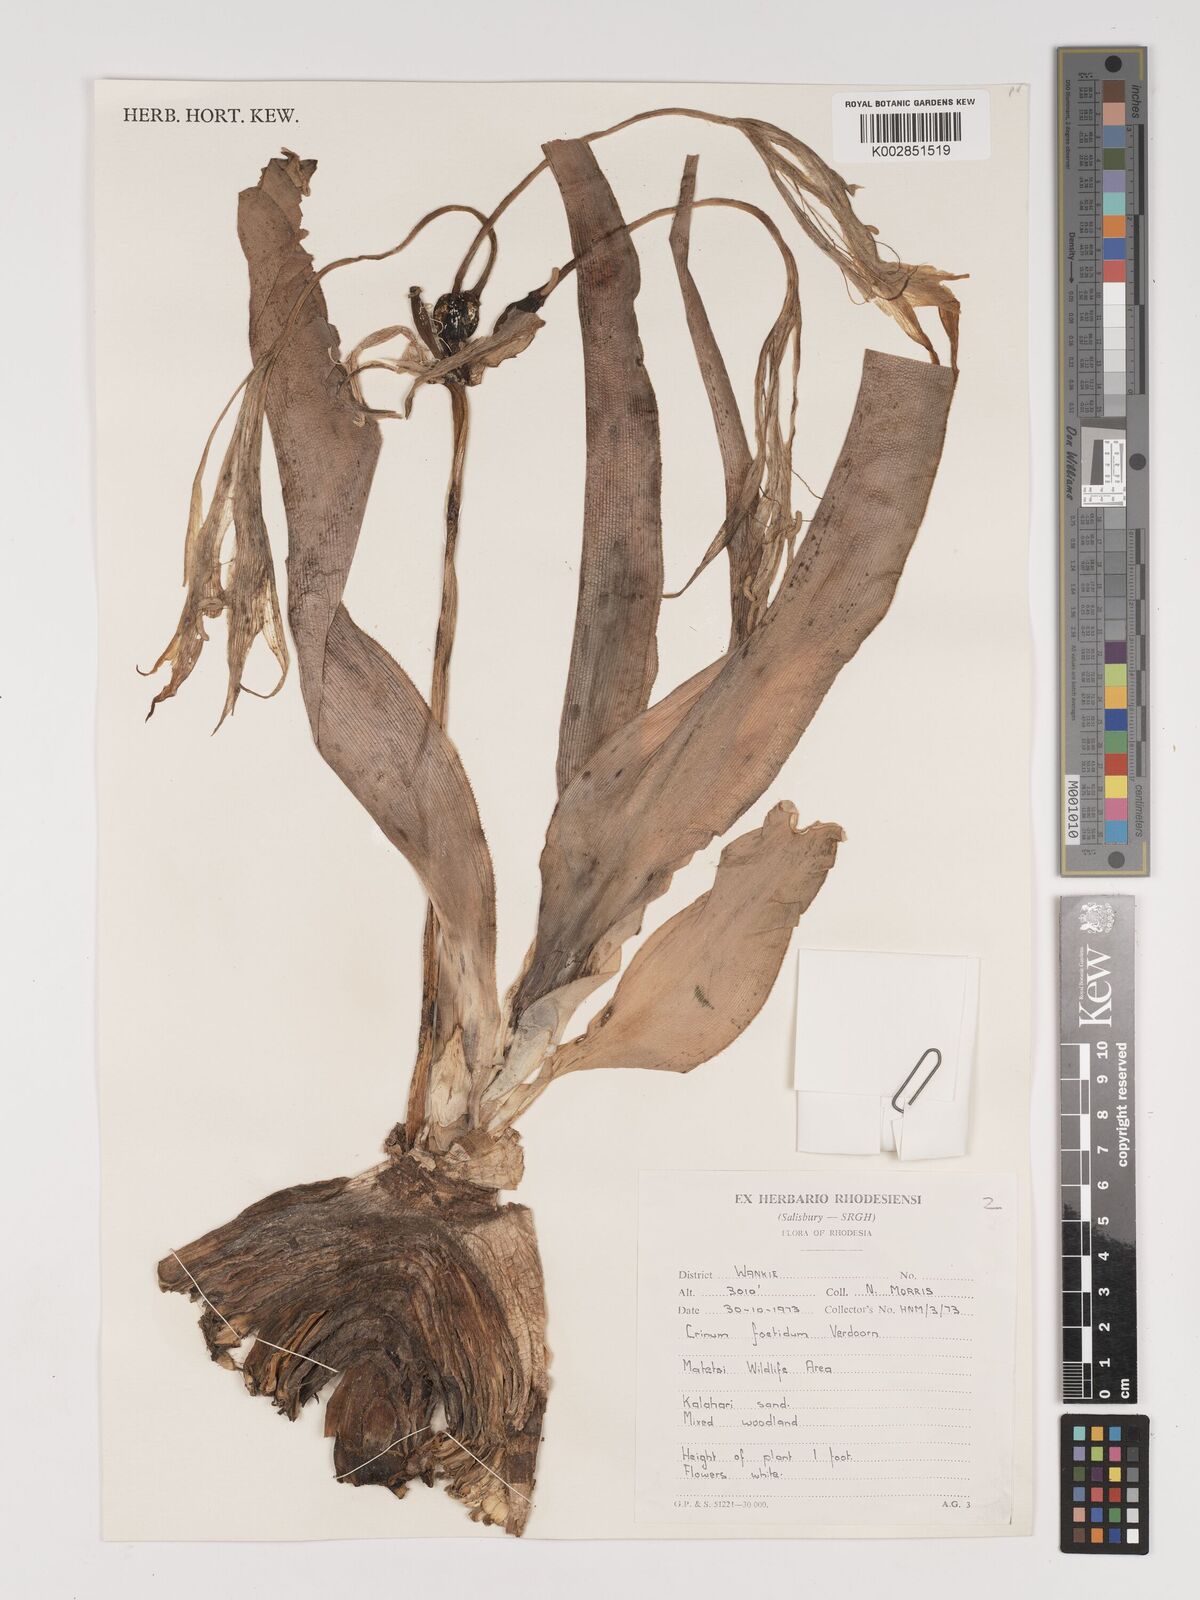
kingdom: Plantae
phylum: Tracheophyta
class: Liliopsida
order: Asparagales
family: Amaryllidaceae
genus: Crinum
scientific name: Crinum crassicaule
